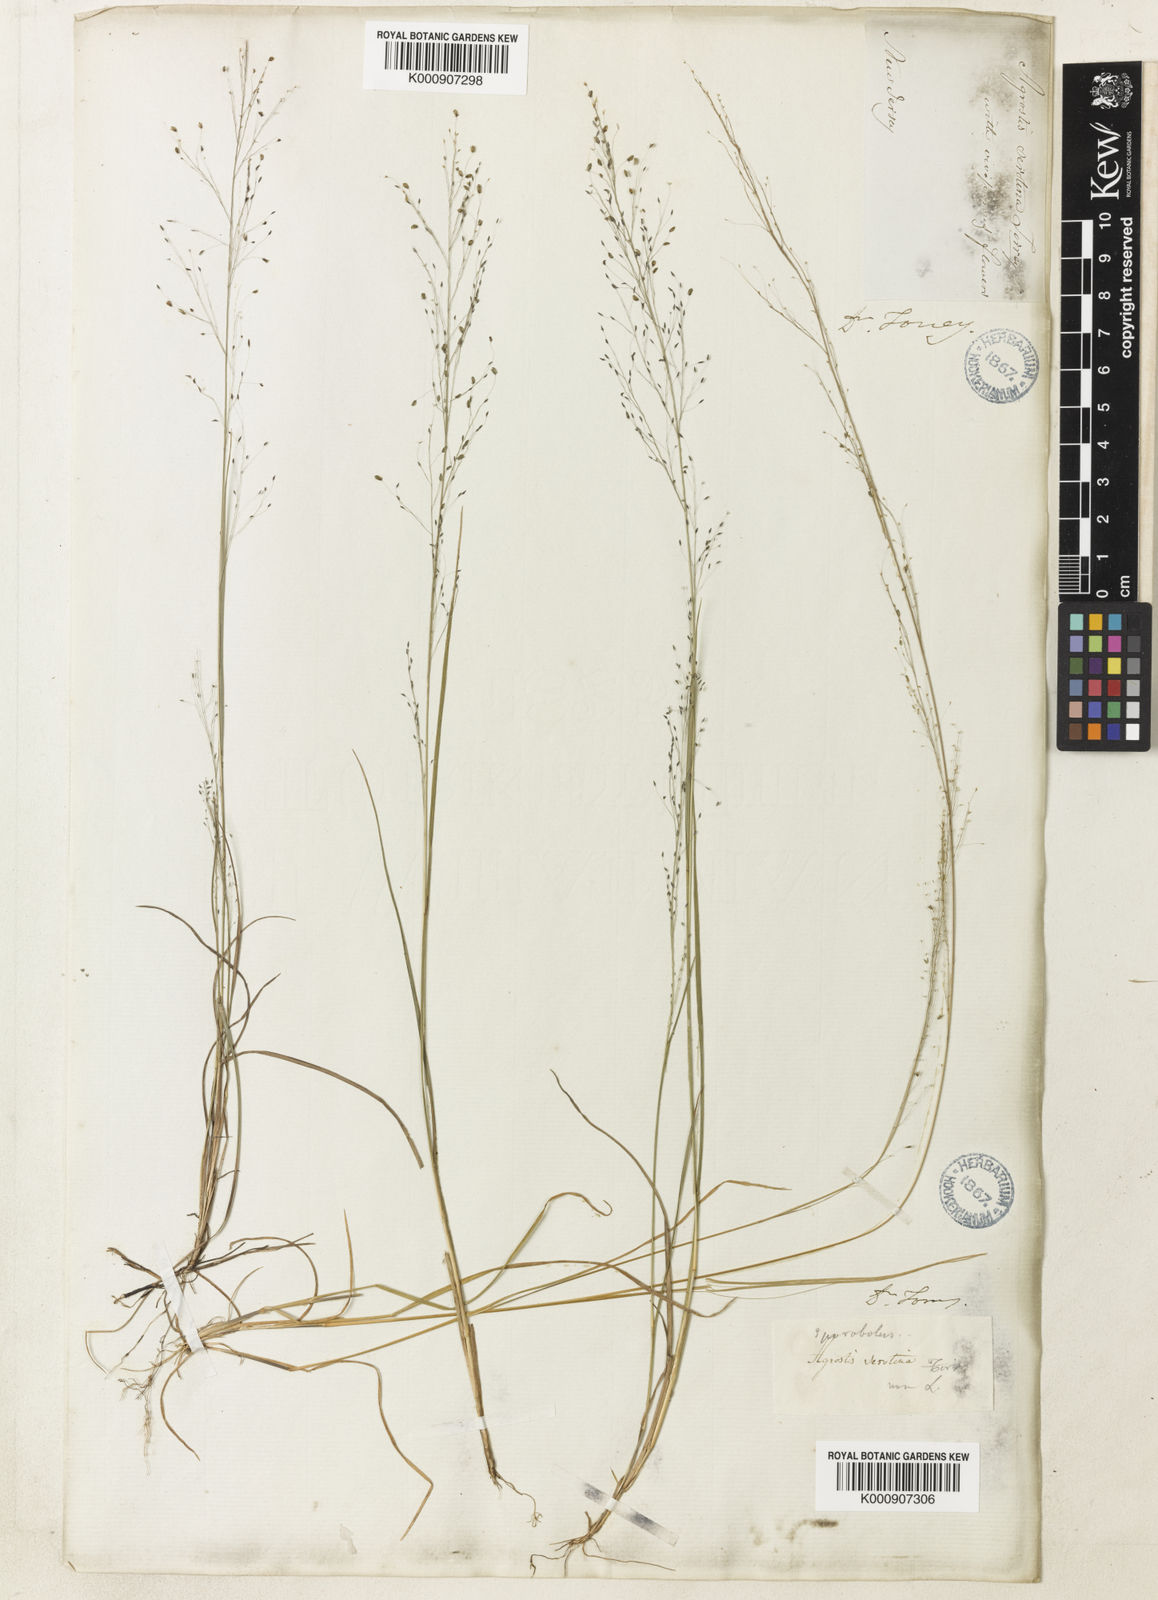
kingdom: Plantae
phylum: Tracheophyta
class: Liliopsida
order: Poales
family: Poaceae
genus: Muhlenbergia
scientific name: Muhlenbergia uniflora
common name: Bog muhly
